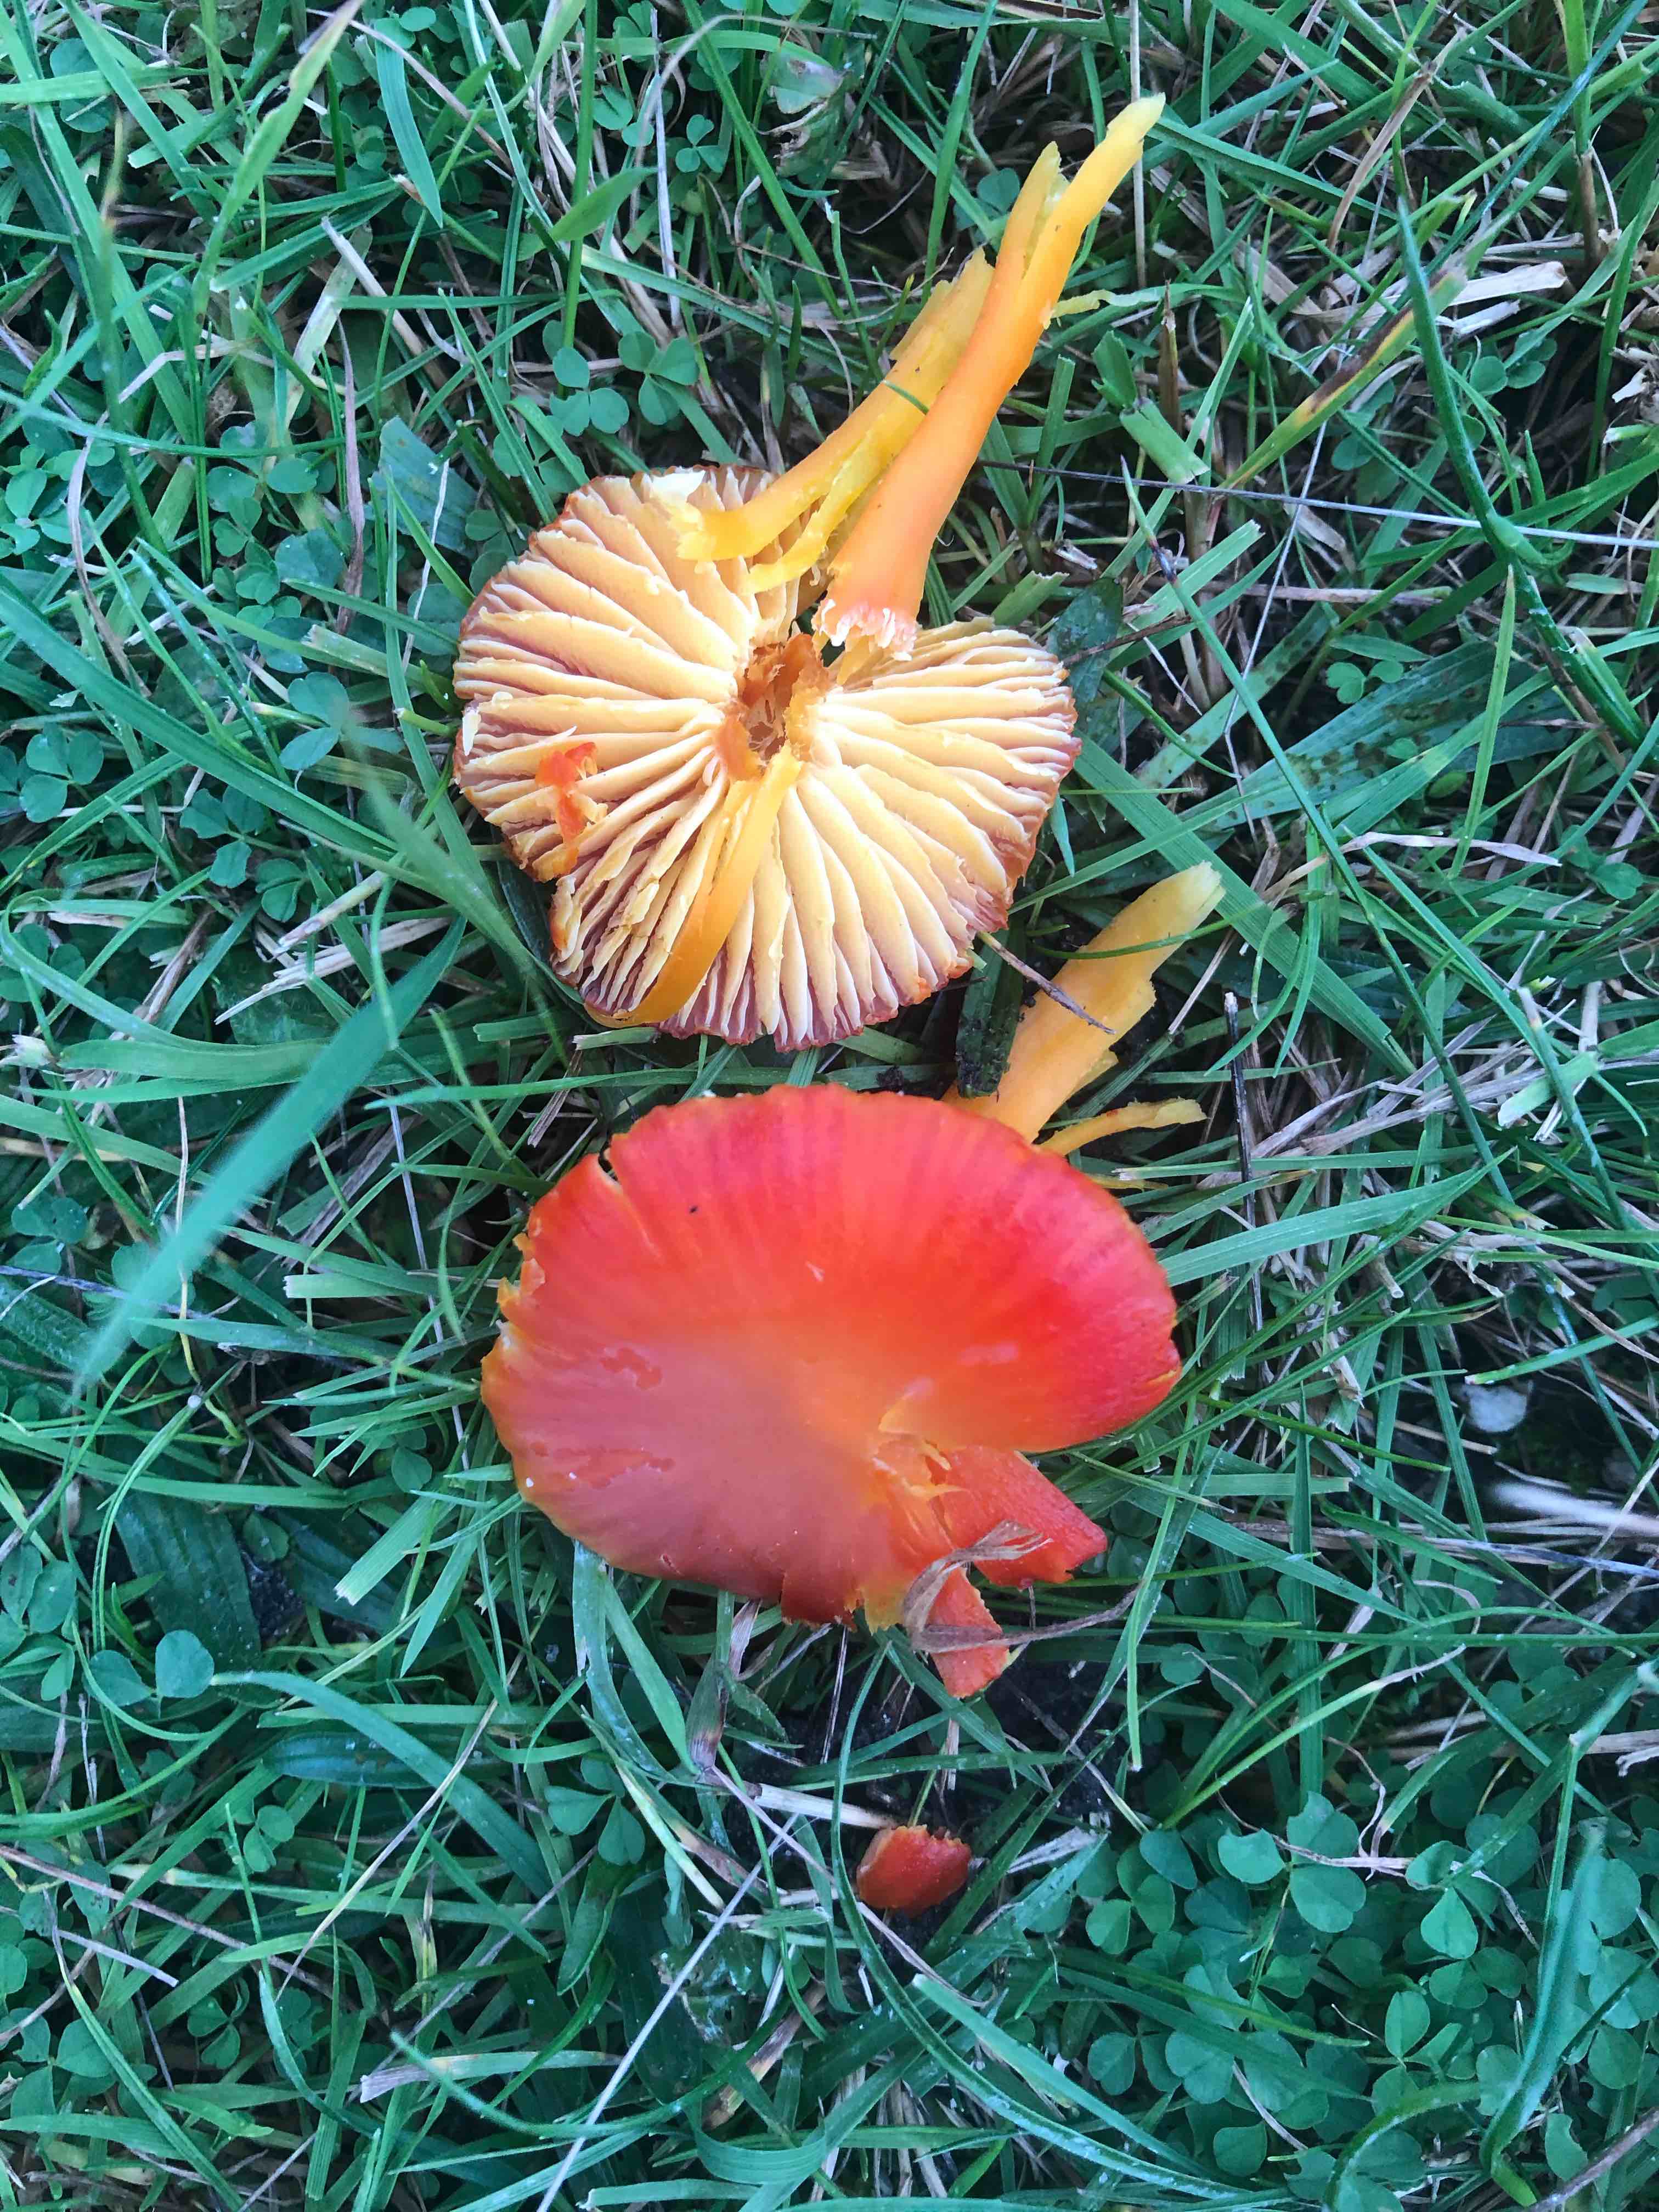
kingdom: Fungi
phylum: Basidiomycota
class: Agaricomycetes
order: Agaricales
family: Hygrophoraceae
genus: Hygrocybe
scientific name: Hygrocybe coccinea
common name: cinnober-vokshat
